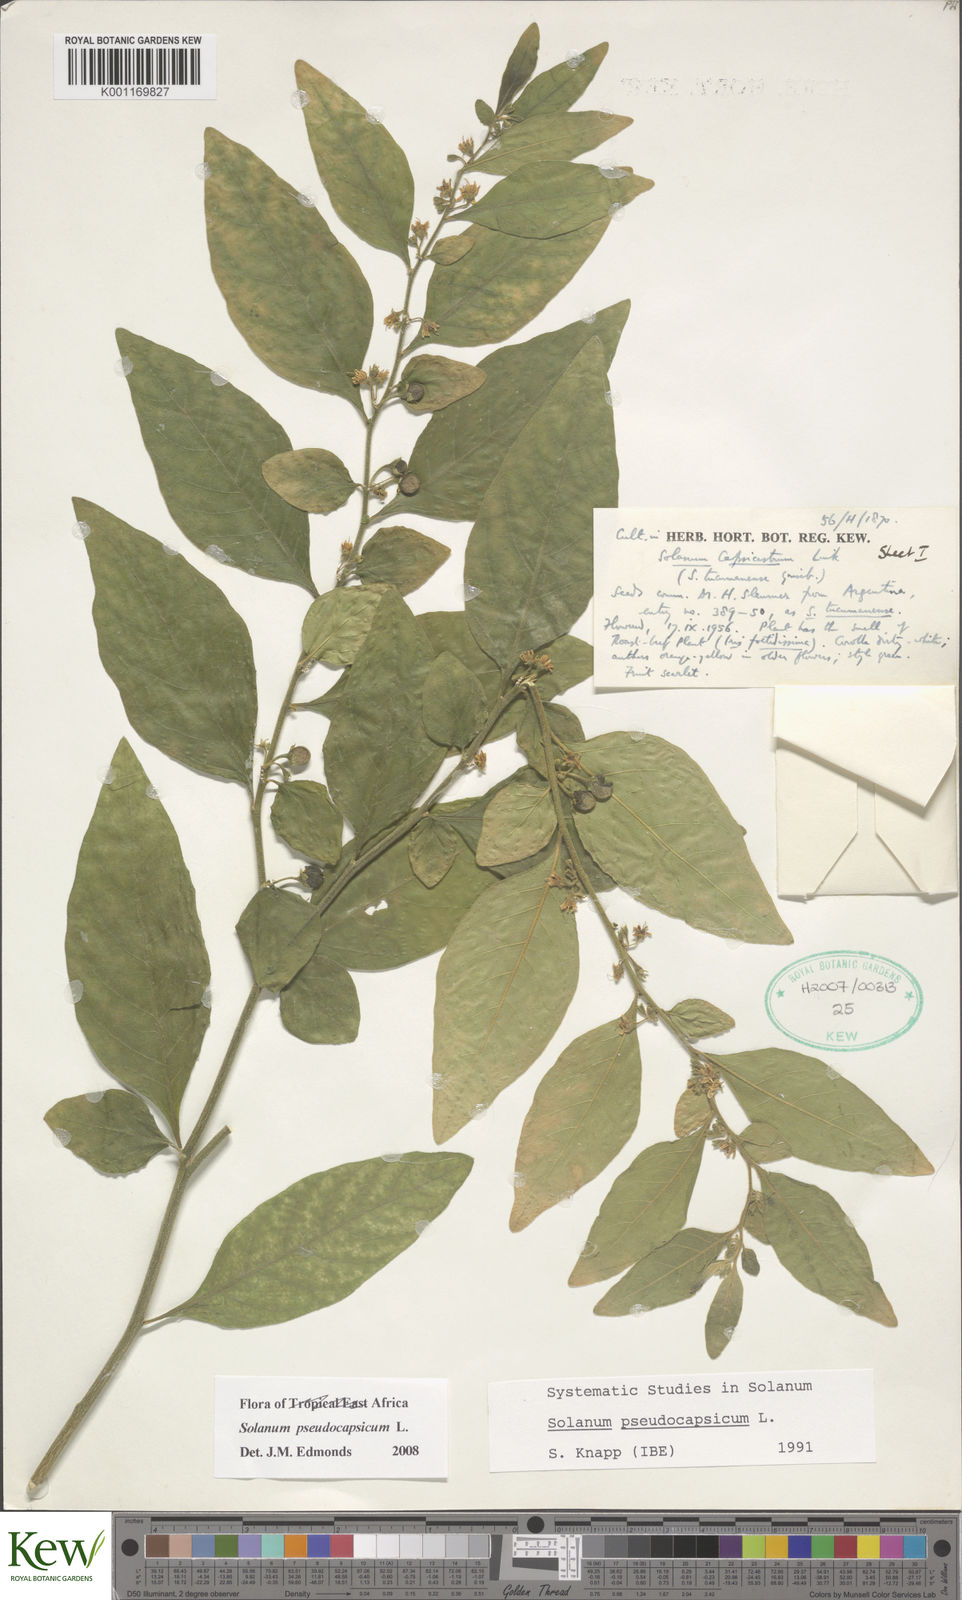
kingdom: Plantae
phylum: Tracheophyta
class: Magnoliopsida
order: Solanales
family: Solanaceae
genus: Solanum
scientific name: Solanum pseudocapsicum
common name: Jerusalem cherry
